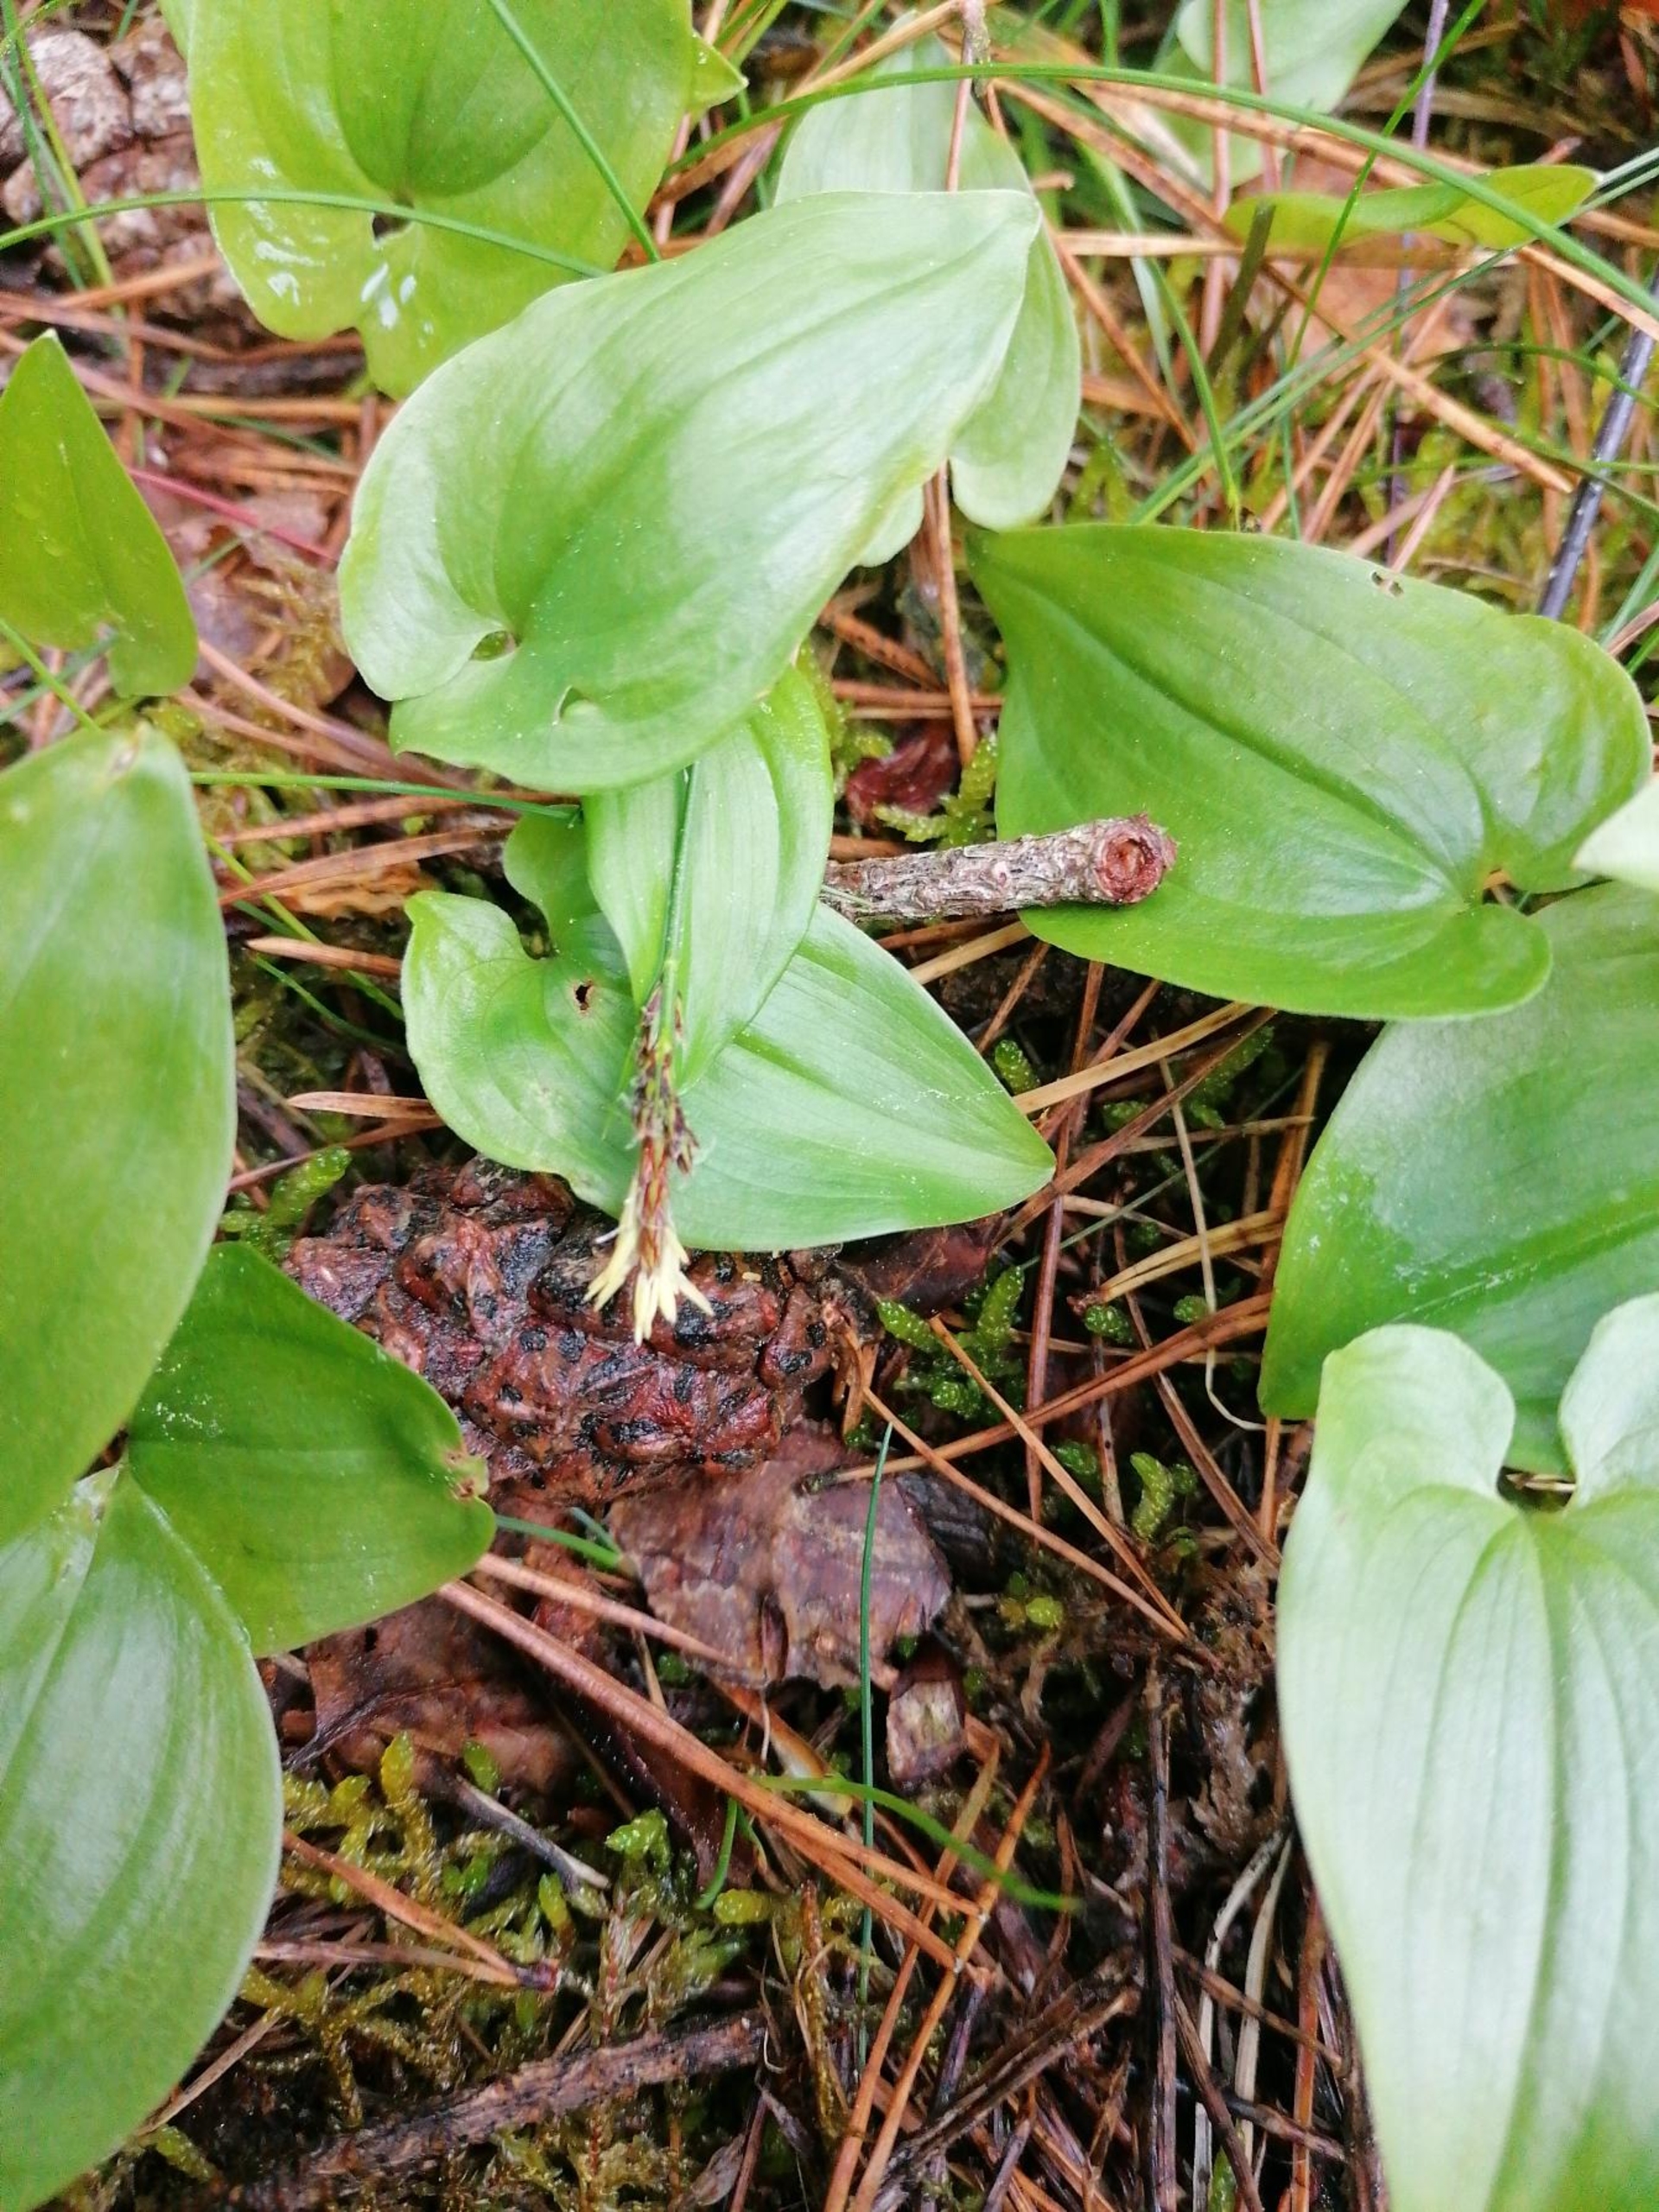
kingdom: Plantae
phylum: Tracheophyta
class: Liliopsida
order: Asparagales
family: Asparagaceae
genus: Maianthemum
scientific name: Maianthemum bifolium
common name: Majblomst
